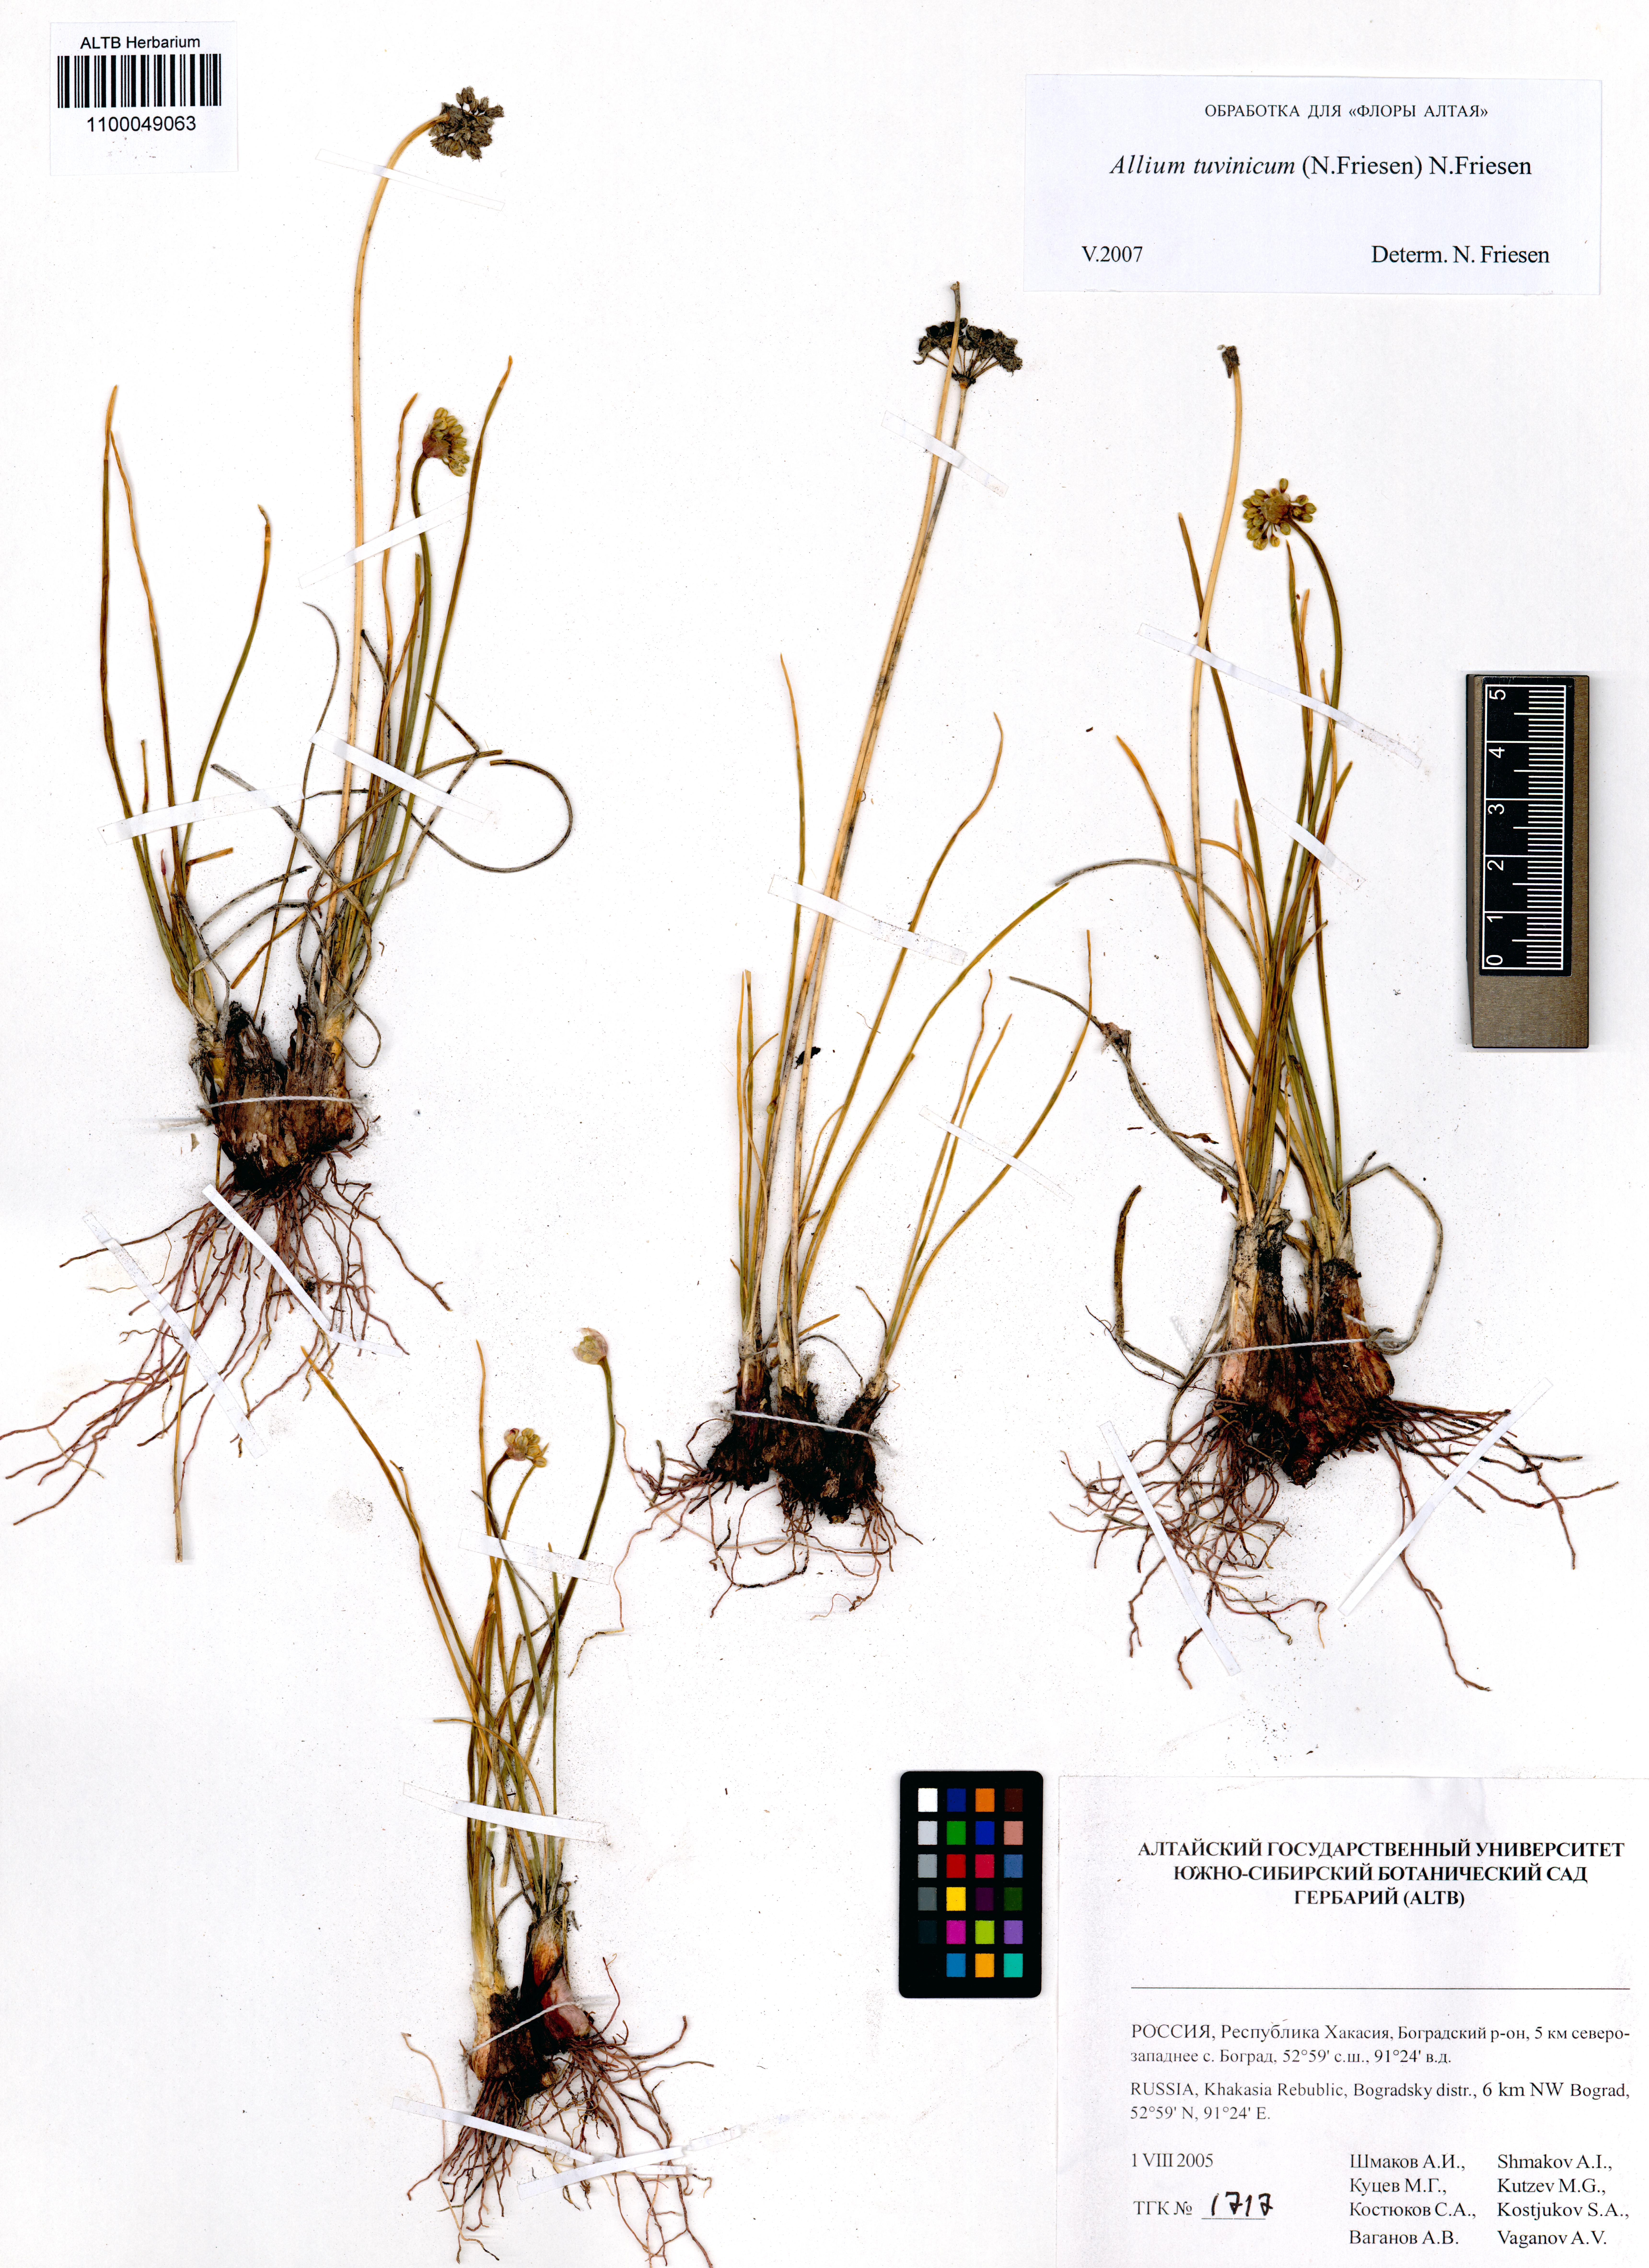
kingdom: Plantae
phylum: Tracheophyta
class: Liliopsida
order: Asparagales
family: Amaryllidaceae
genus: Allium
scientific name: Allium tuvinicum
